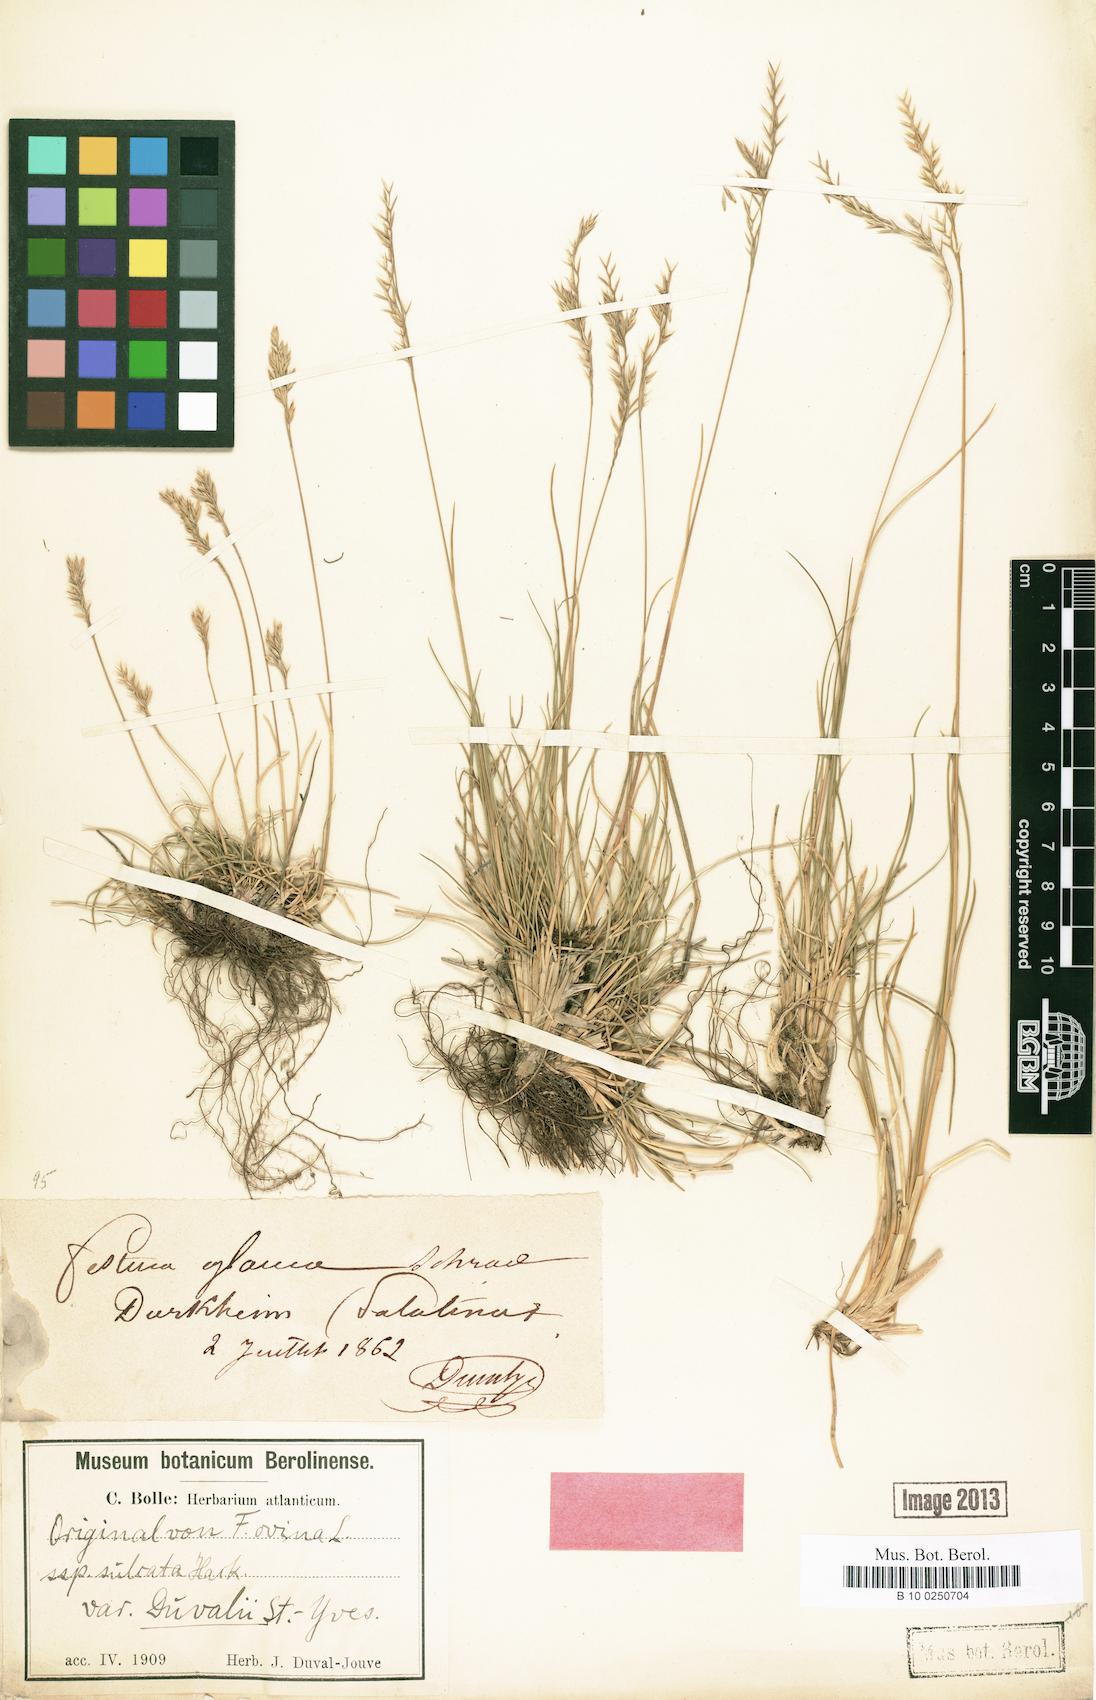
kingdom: Plantae
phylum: Tracheophyta
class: Liliopsida
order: Poales
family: Poaceae
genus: Festuca
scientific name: Festuca duvalii
